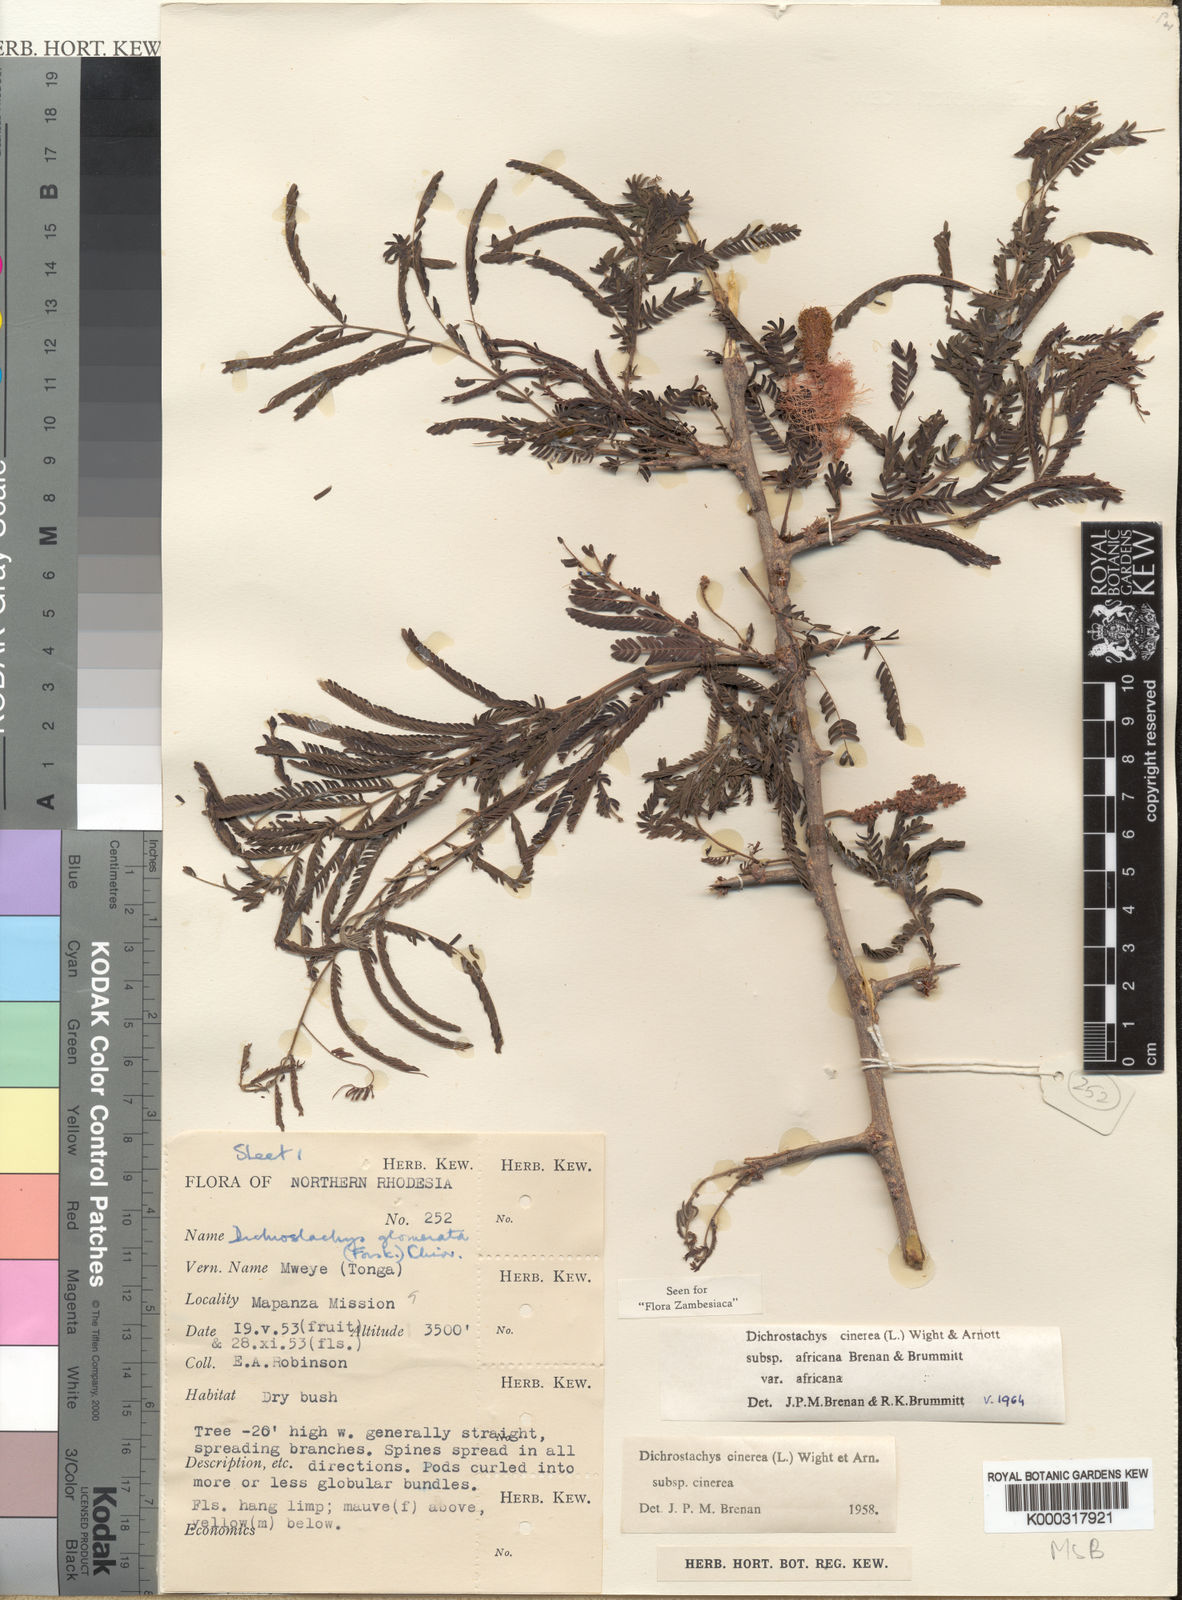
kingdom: Plantae
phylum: Tracheophyta
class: Magnoliopsida
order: Fabales
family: Fabaceae
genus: Dichrostachys
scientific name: Dichrostachys cinerea
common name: Sicklebush
